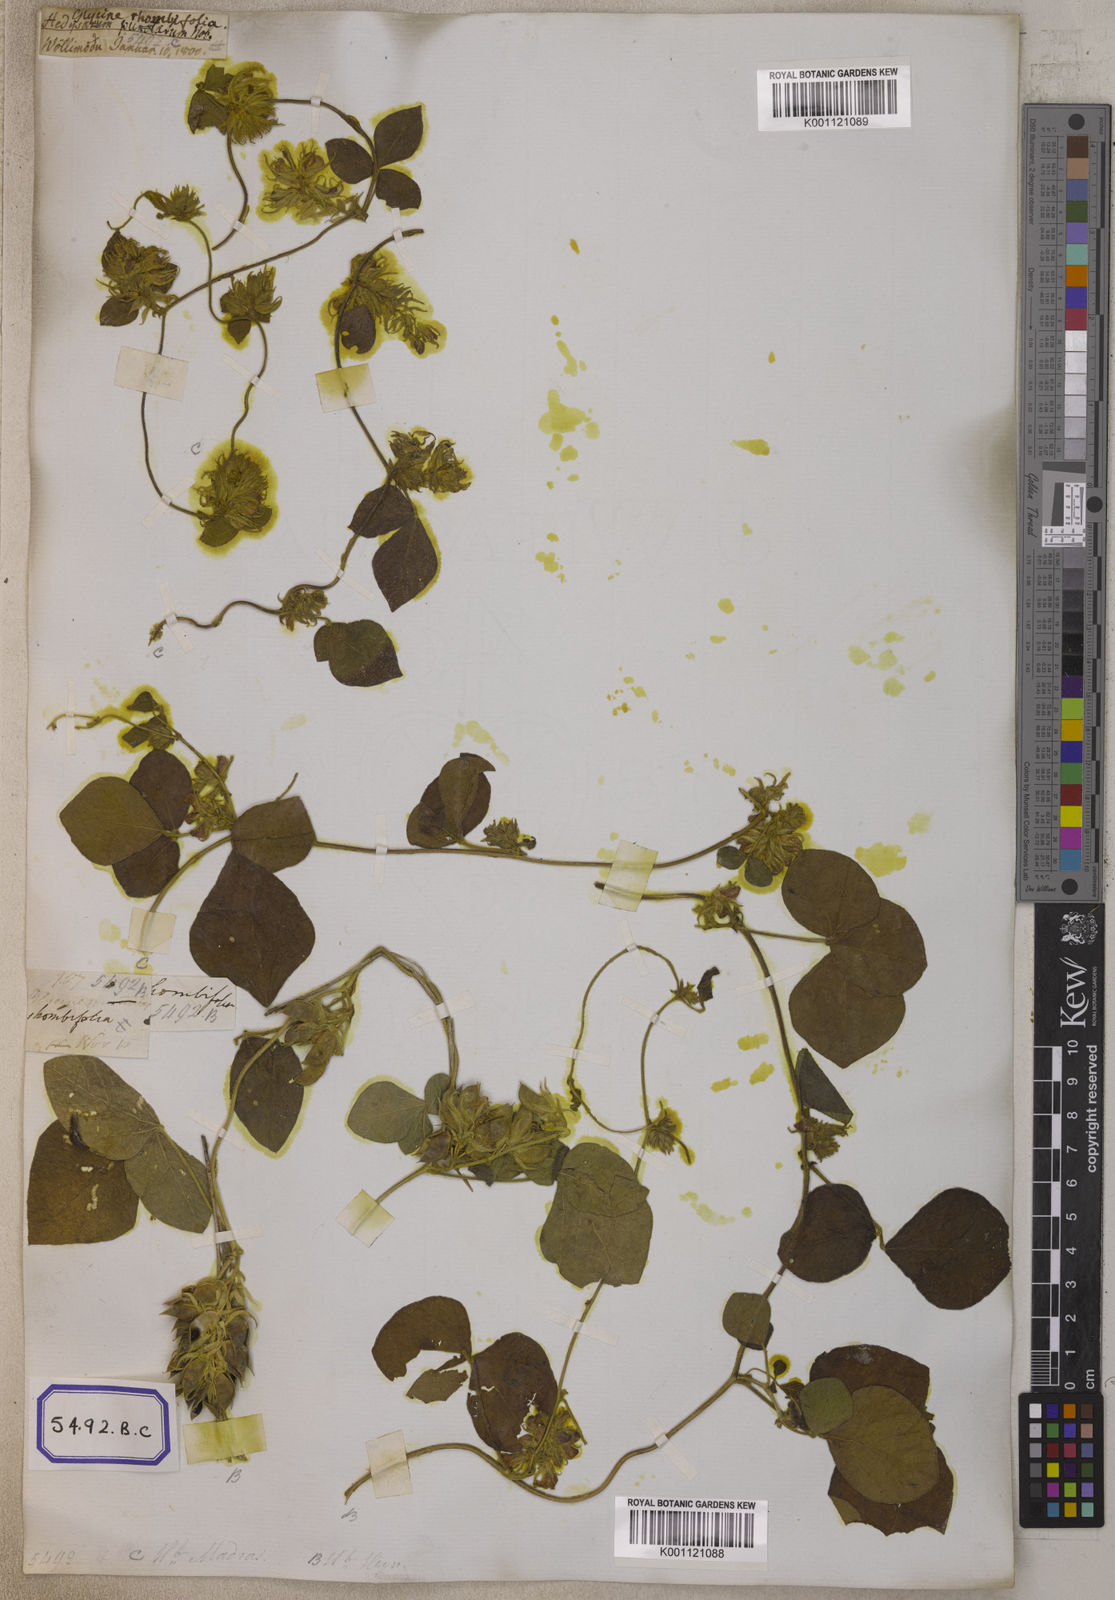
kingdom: Plantae
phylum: Tracheophyta
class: Magnoliopsida
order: Malpighiales
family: Salicaceae
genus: Flacourtia
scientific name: Flacourtia
